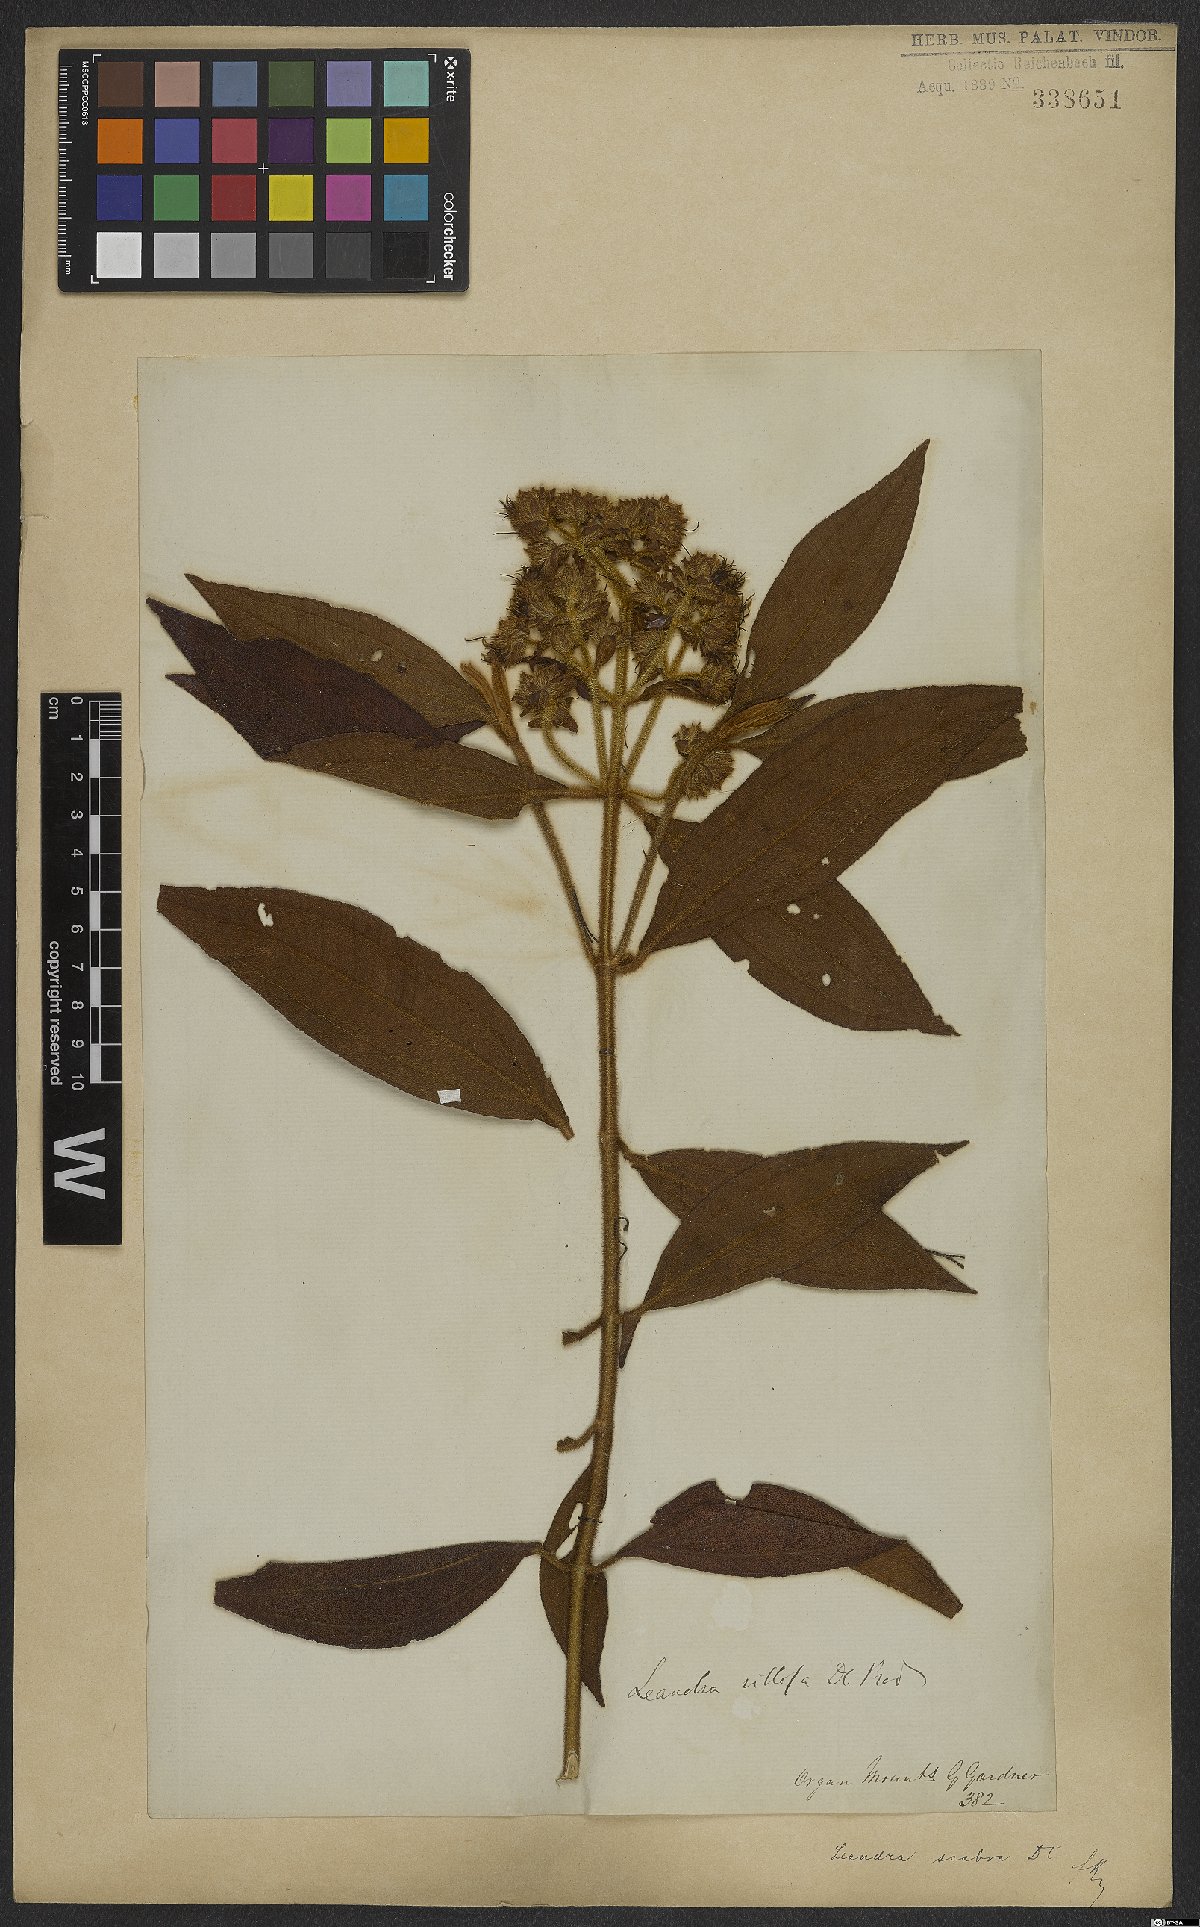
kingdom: Plantae
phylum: Tracheophyta
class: Magnoliopsida
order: Myrtales
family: Melastomataceae
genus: Miconia
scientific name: Miconia melastomoides
